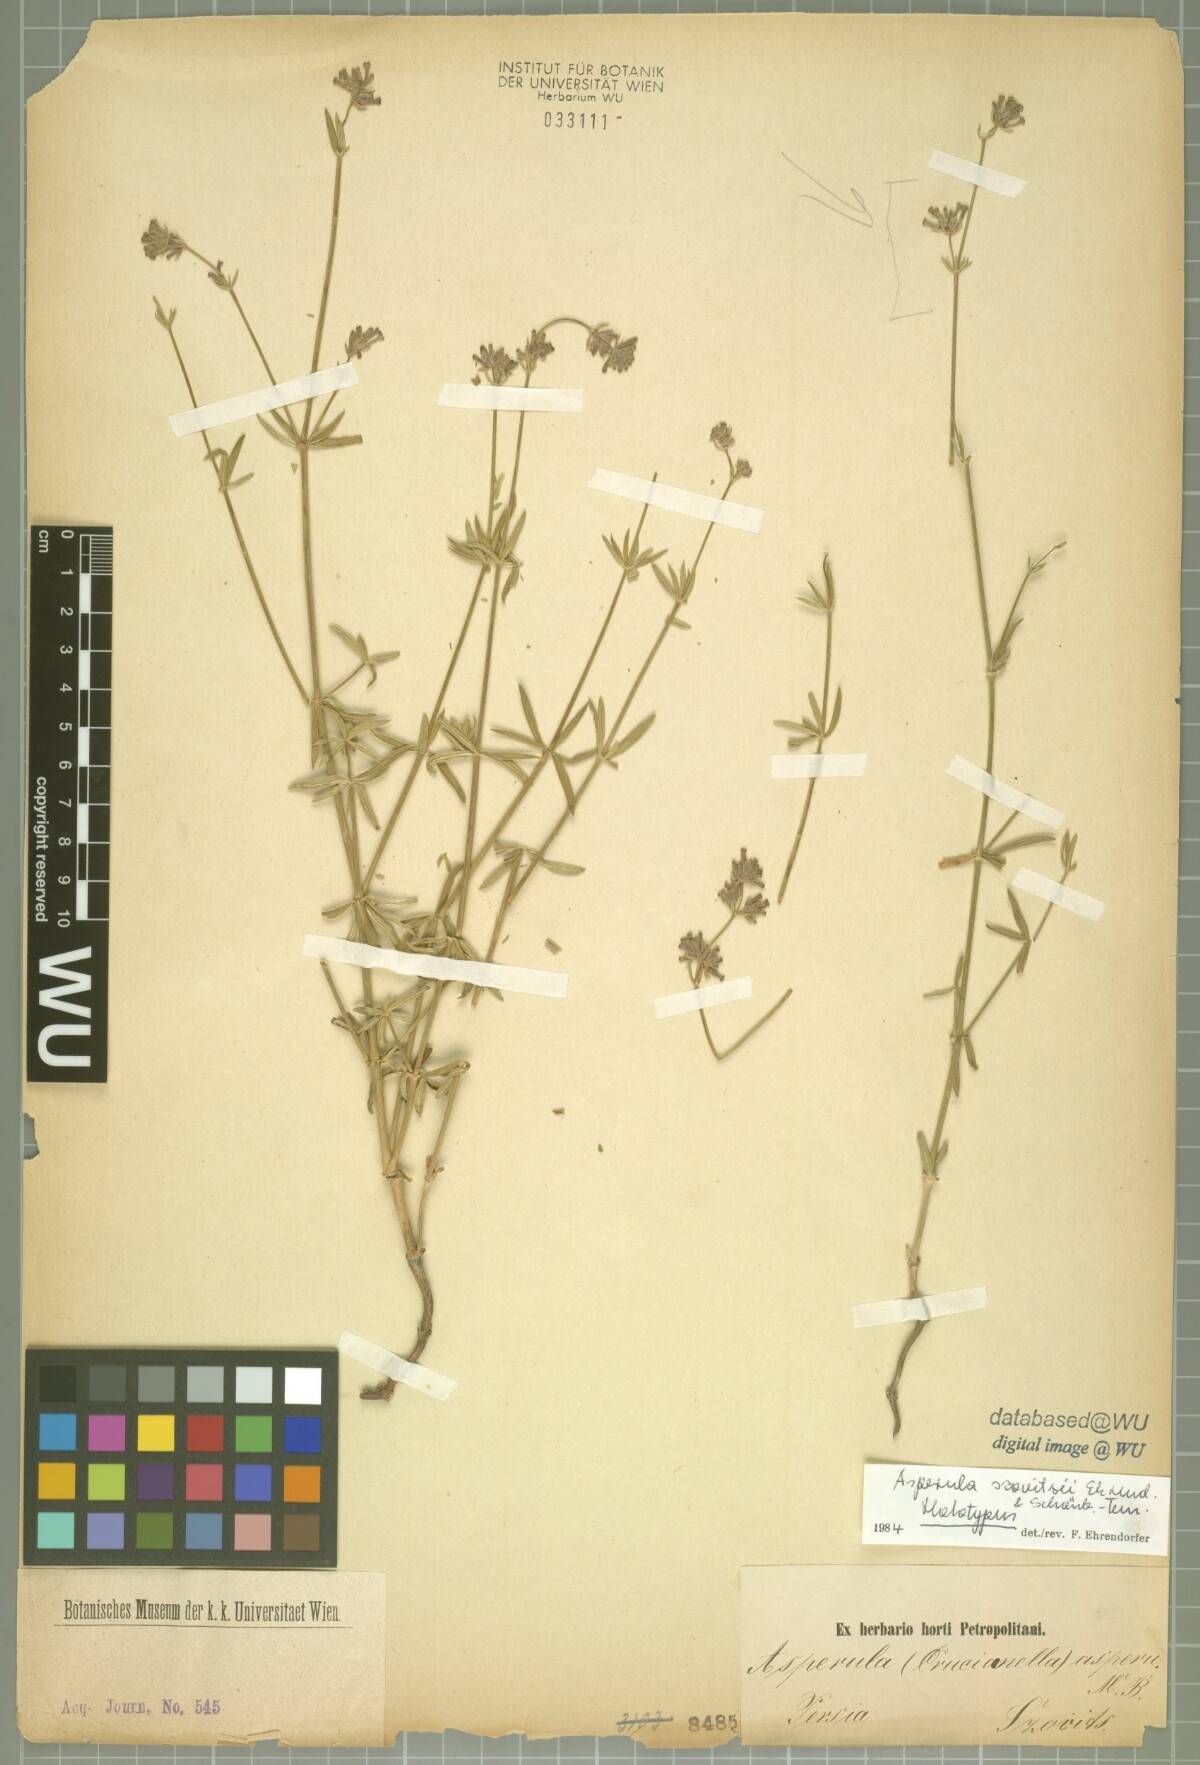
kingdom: Plantae
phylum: Tracheophyta
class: Magnoliopsida
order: Gentianales
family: Rubiaceae
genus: Asperula
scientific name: Asperula szovitsii
